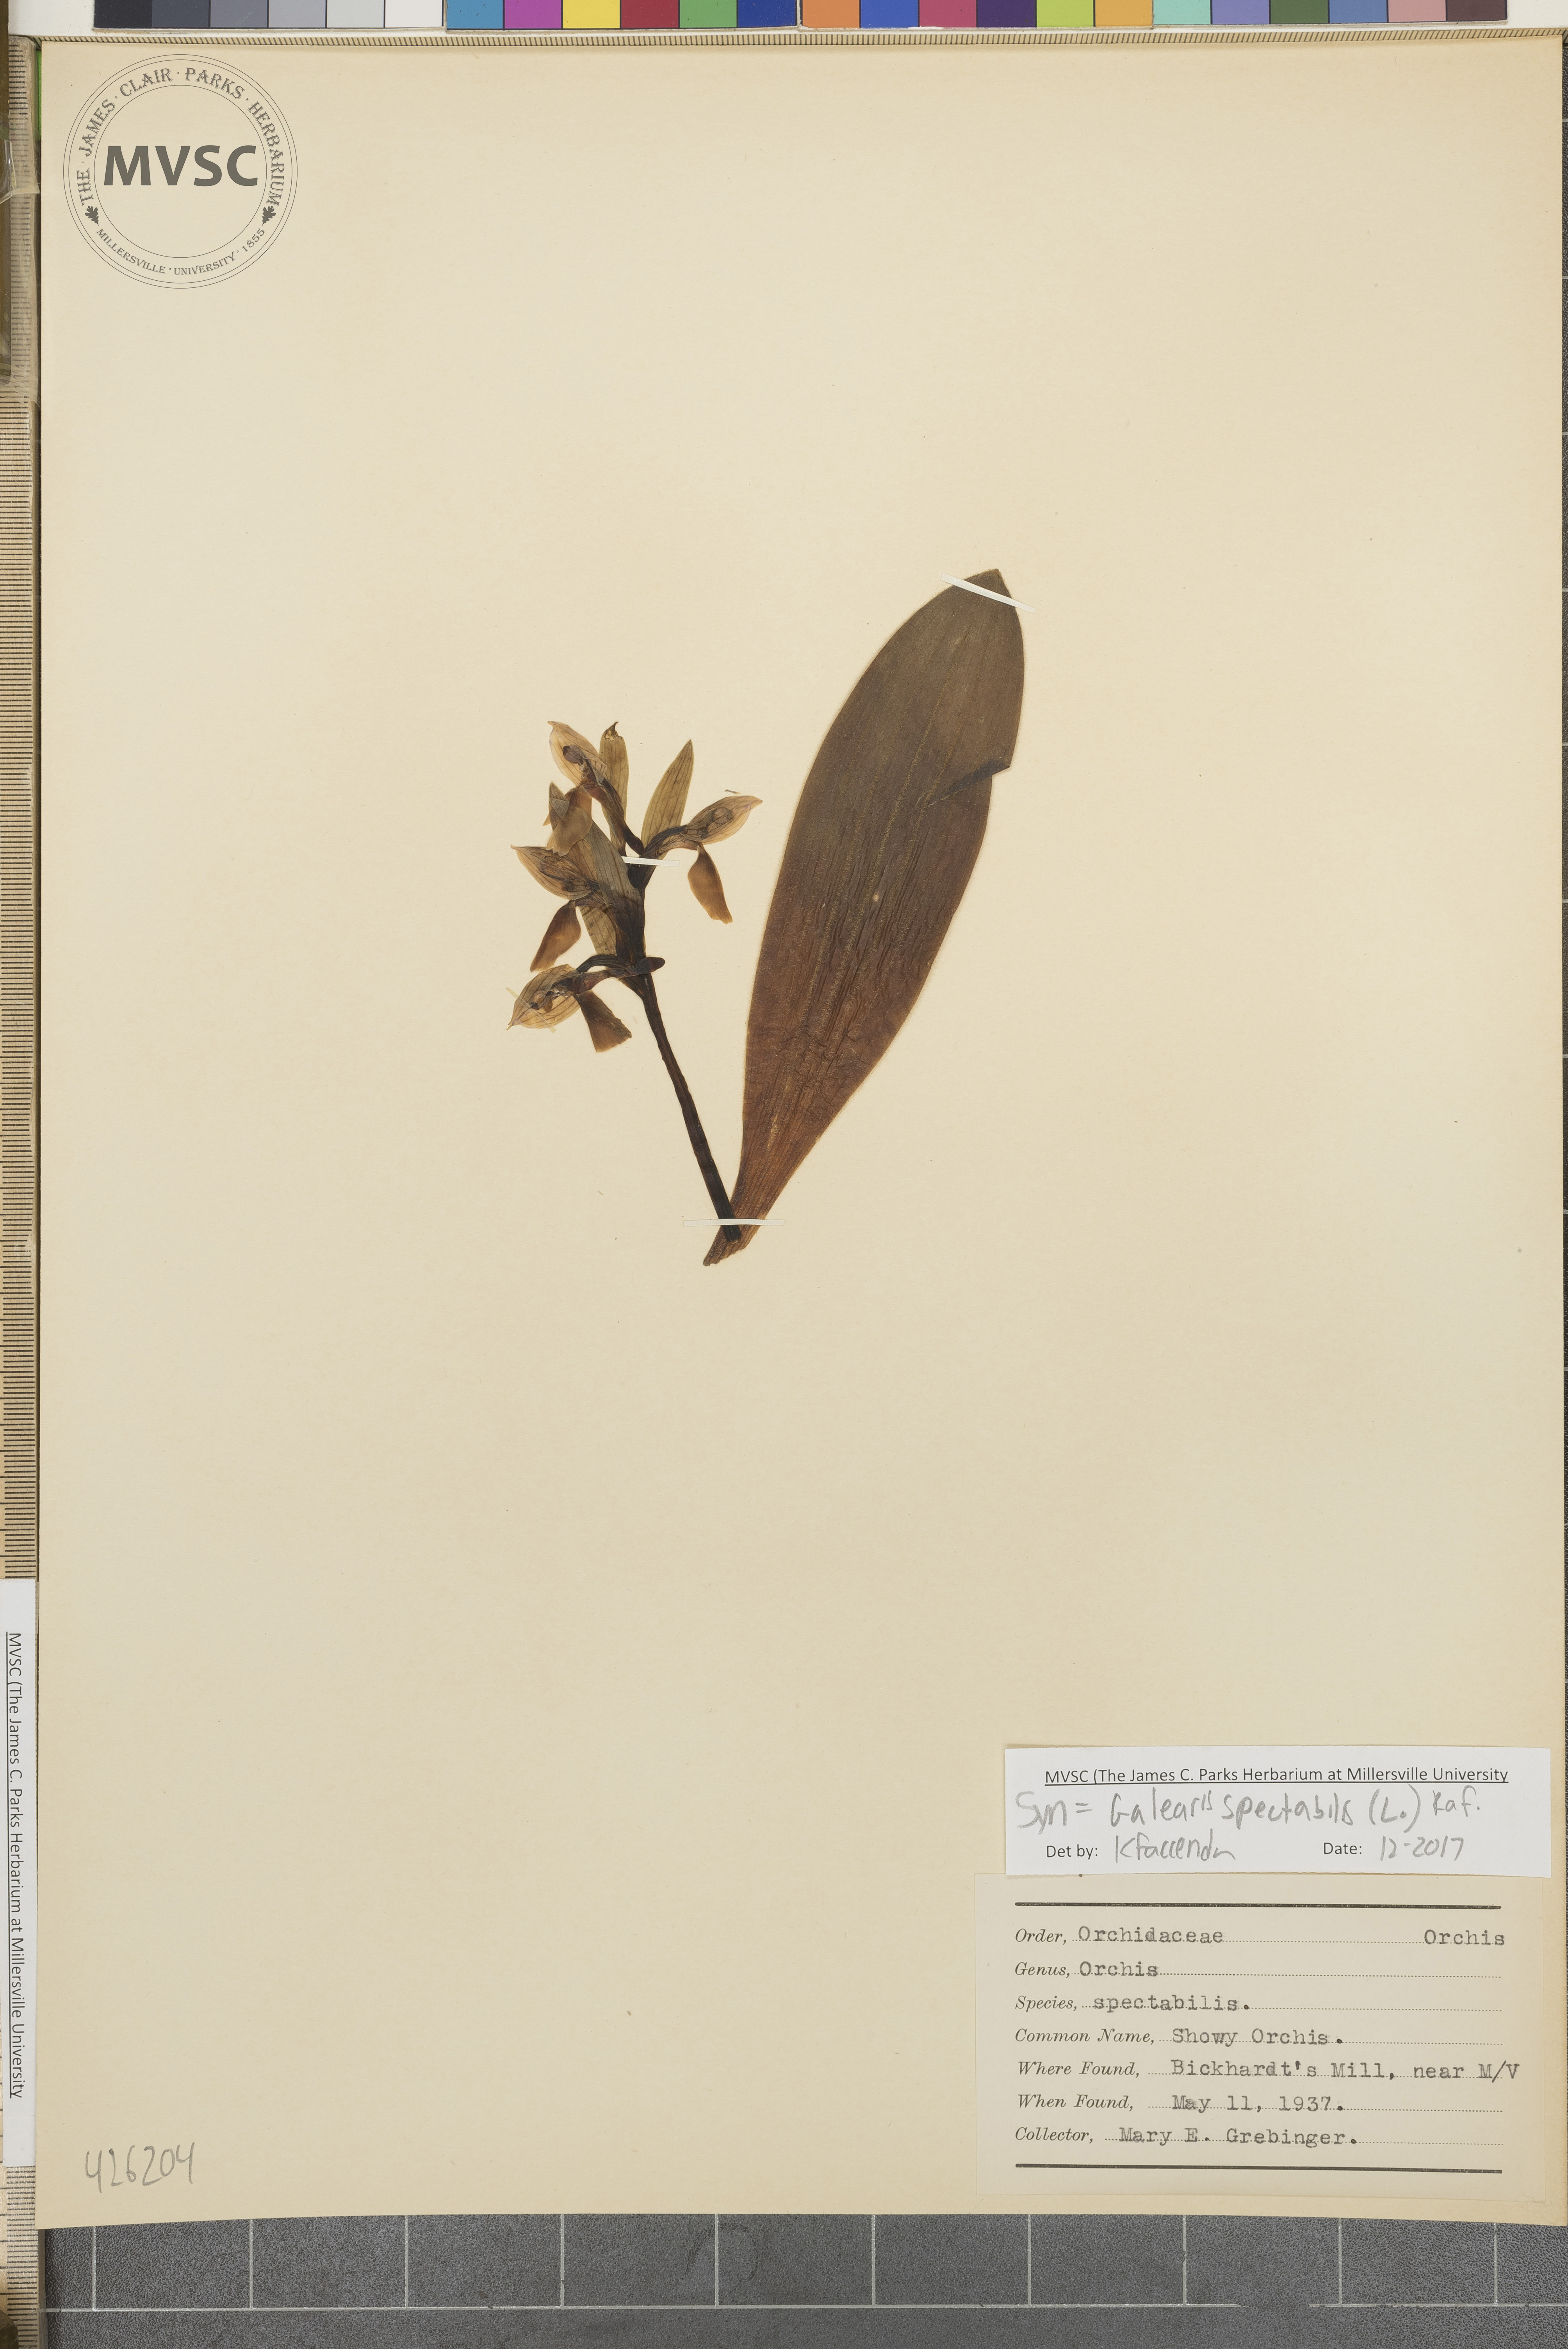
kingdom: Plantae
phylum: Tracheophyta
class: Liliopsida
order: Asparagales
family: Orchidaceae
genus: Galearis
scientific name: Galearis spectabilis
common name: Showy orchis
